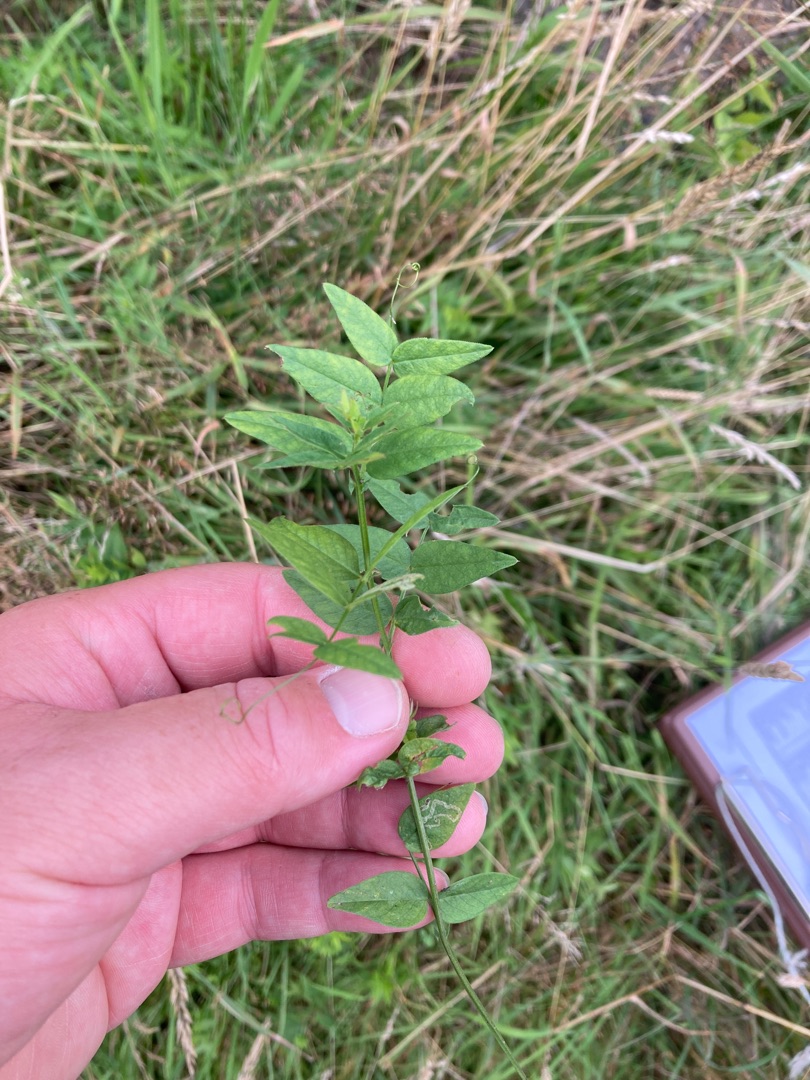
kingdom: Plantae
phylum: Tracheophyta
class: Magnoliopsida
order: Fabales
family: Fabaceae
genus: Vicia
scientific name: Vicia sepium
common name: Gærde-vikke
